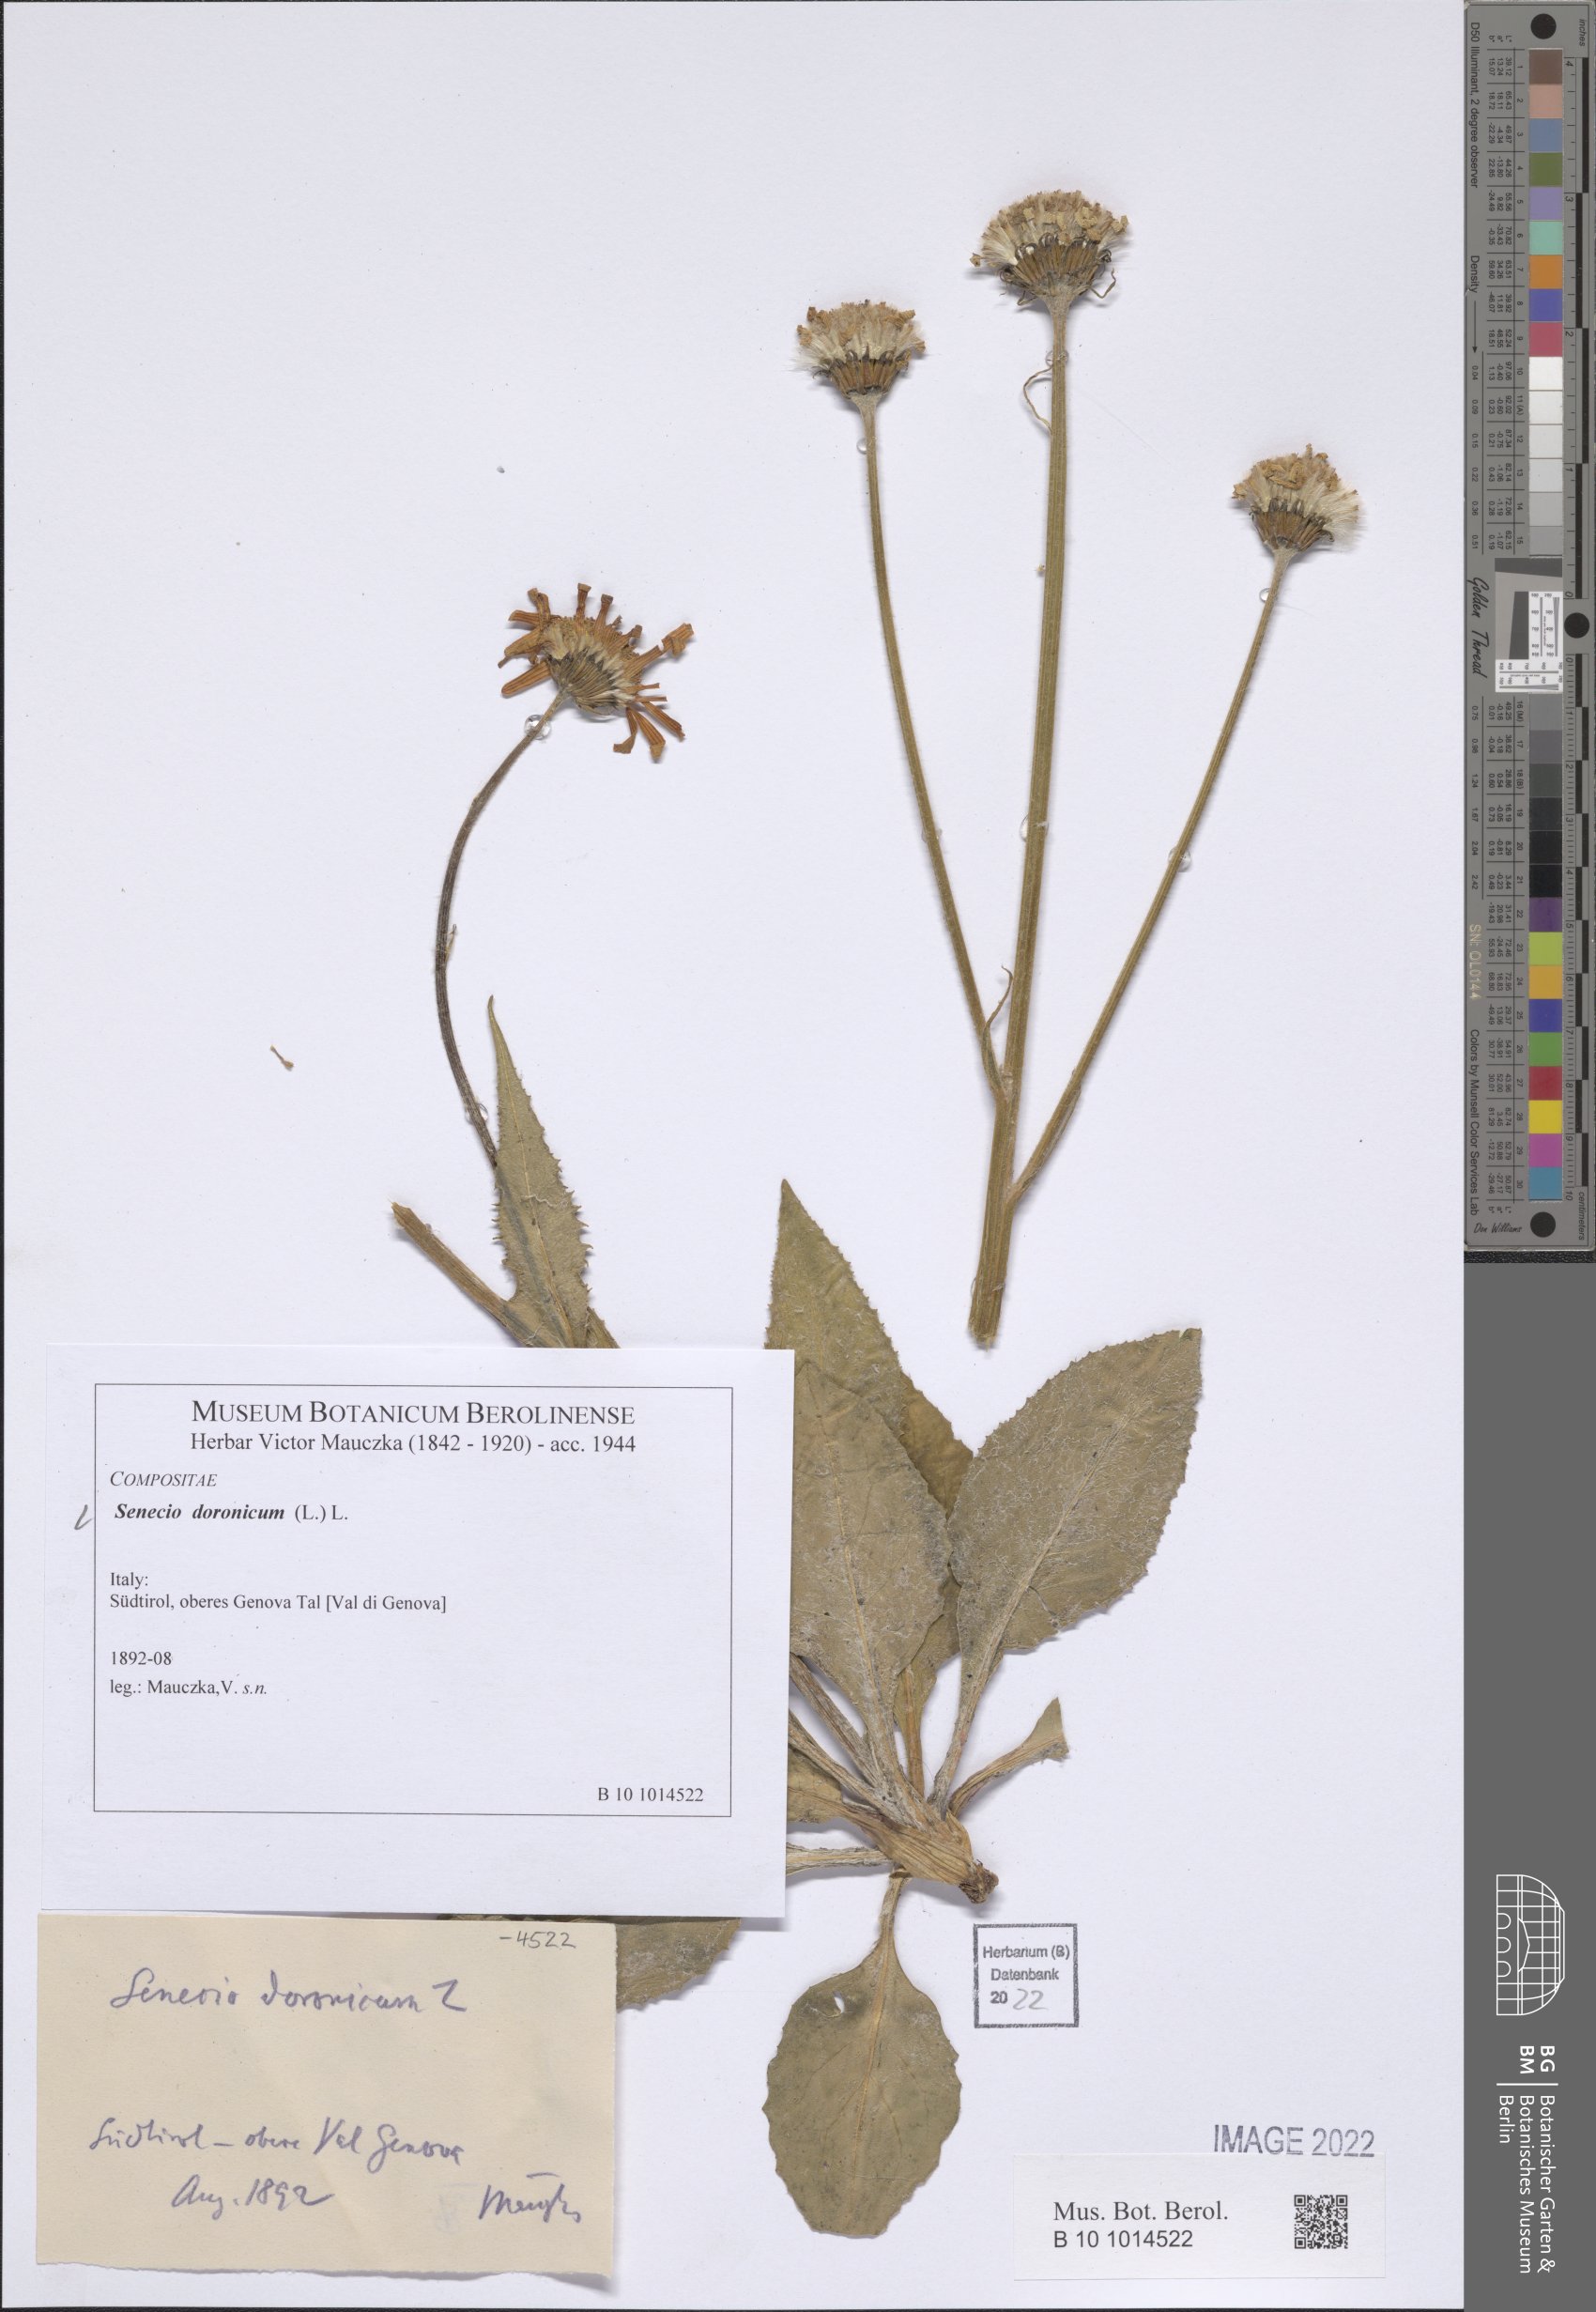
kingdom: Plantae
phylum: Tracheophyta
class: Magnoliopsida
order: Asterales
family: Asteraceae
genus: Senecio
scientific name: Senecio doronicum
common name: Chamois ragwort
